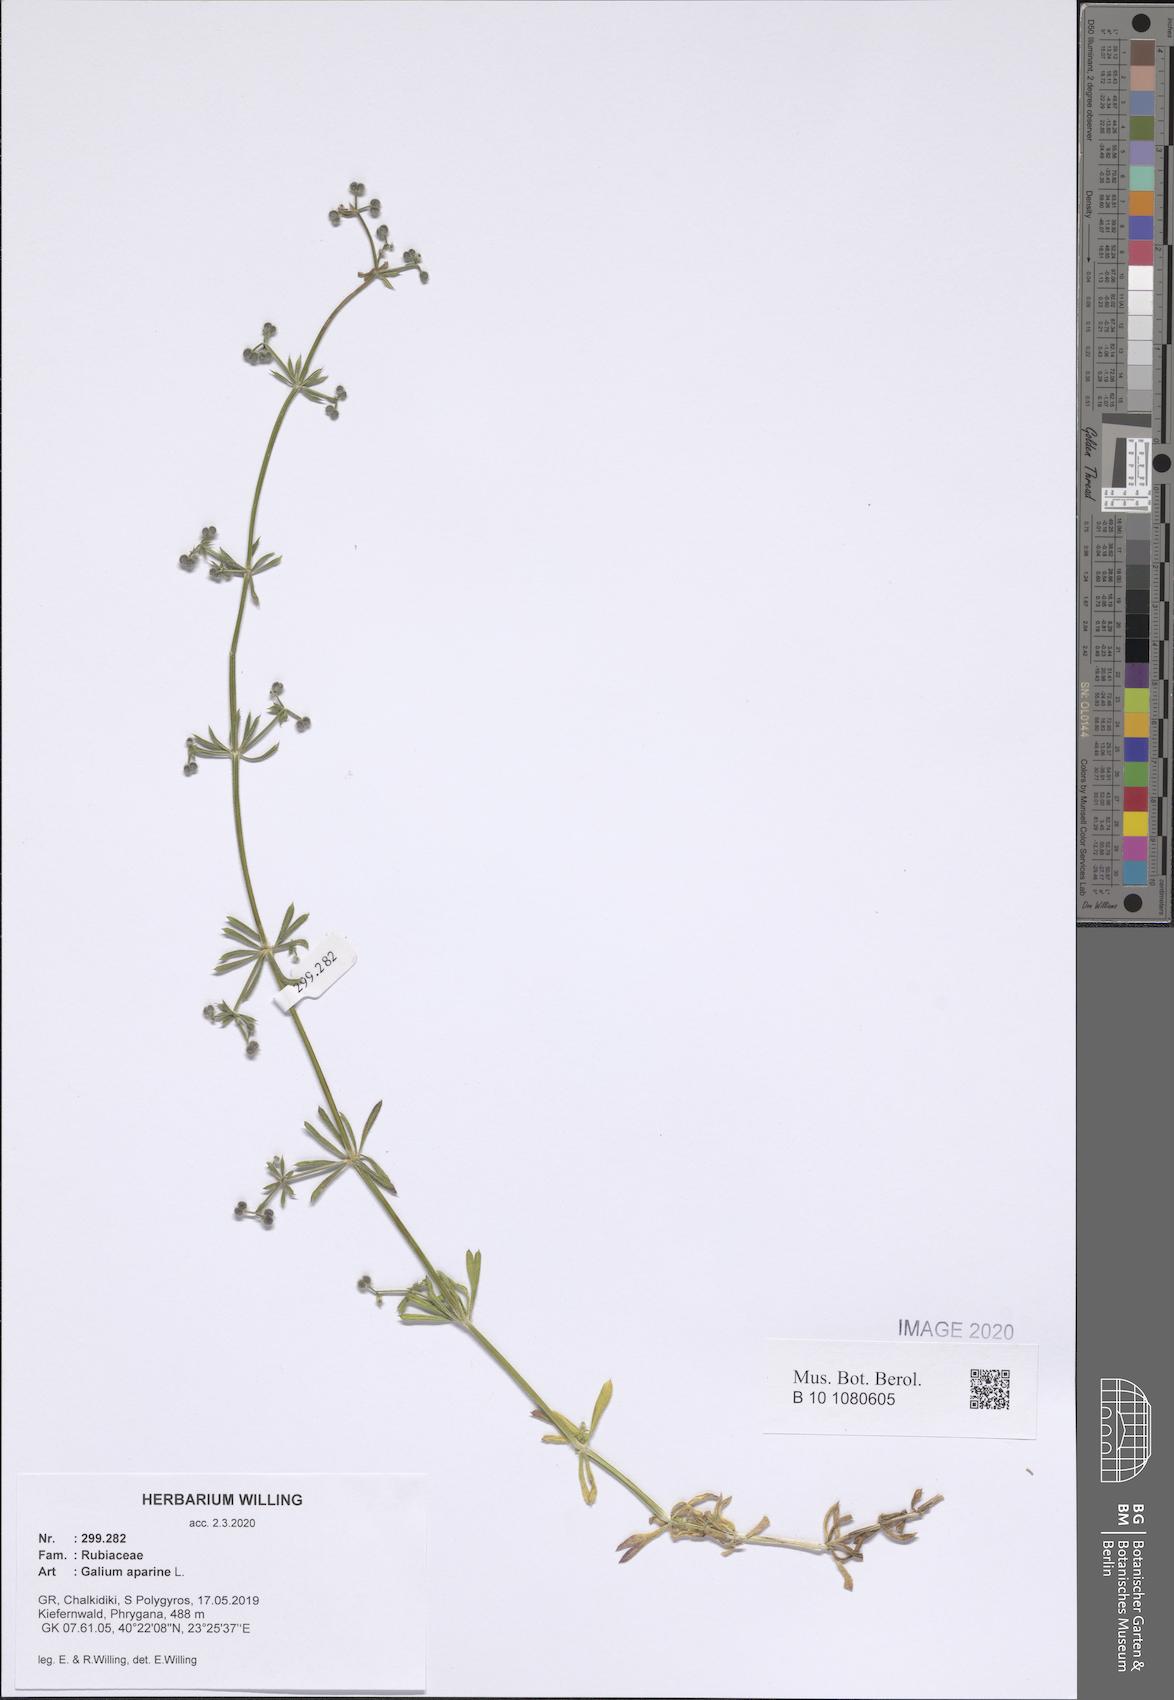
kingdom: Plantae
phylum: Tracheophyta
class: Magnoliopsida
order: Gentianales
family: Rubiaceae
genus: Galium
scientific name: Galium aparine
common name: Cleavers
